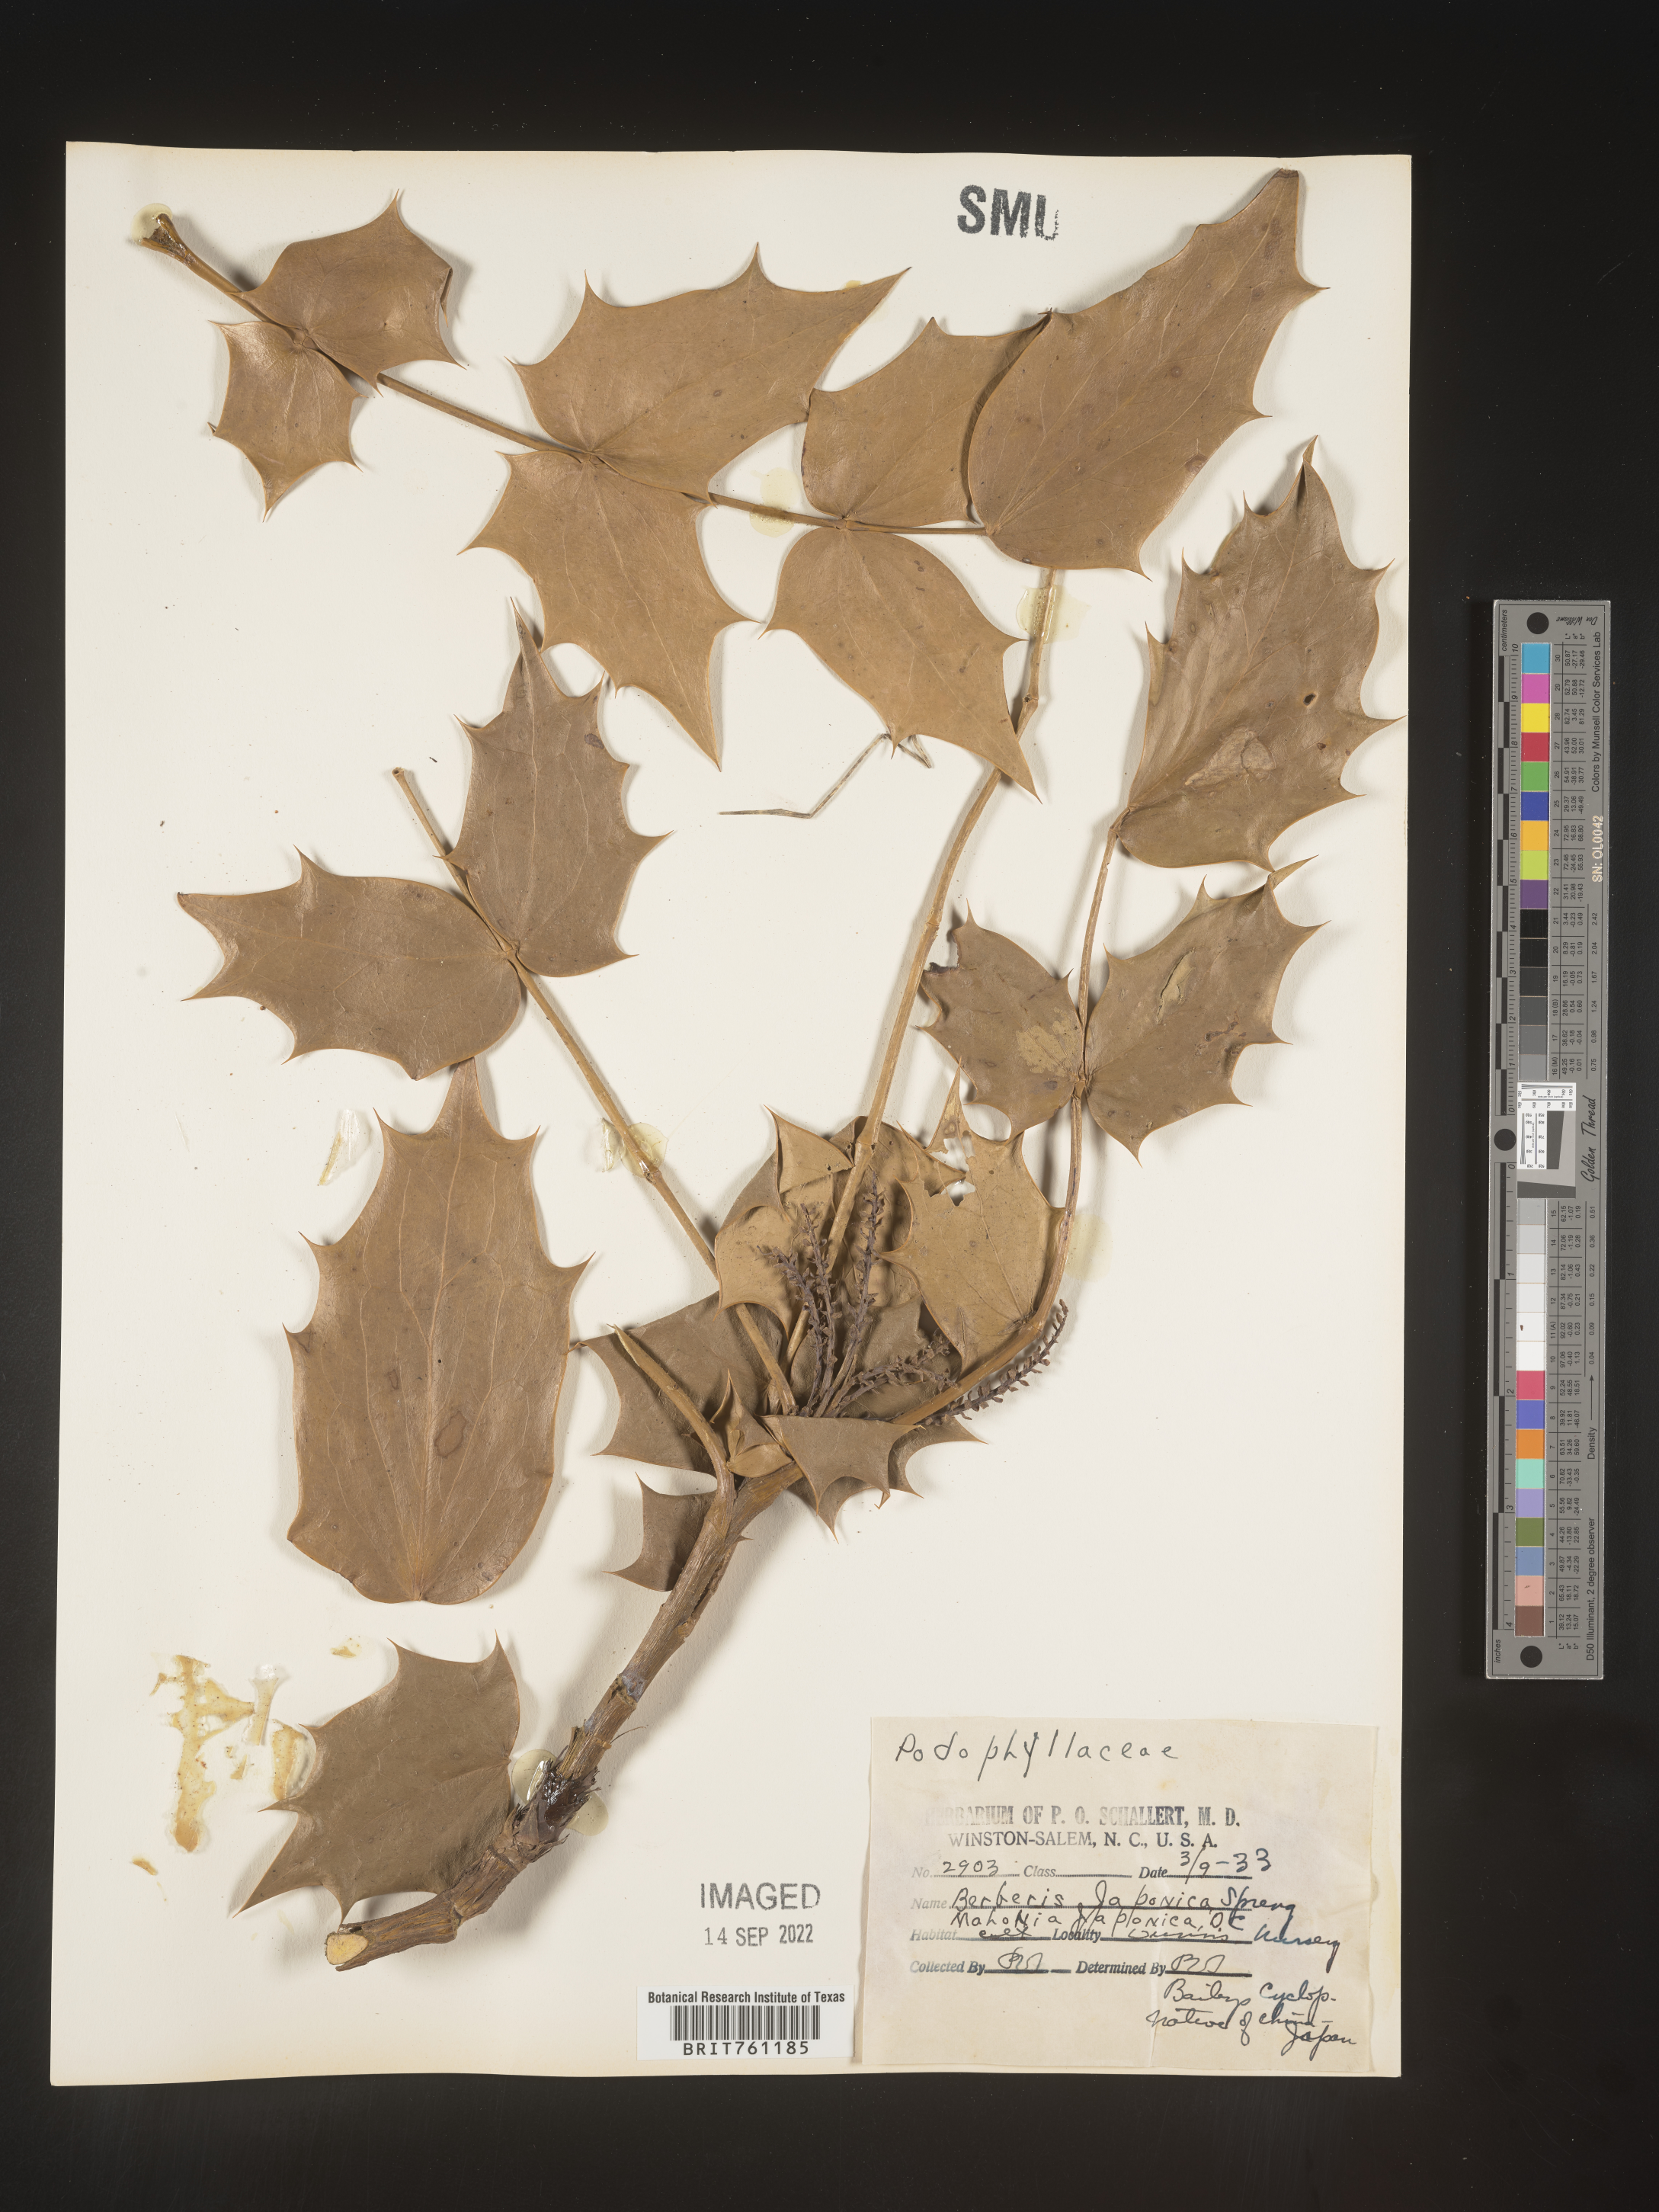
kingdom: Plantae
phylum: Tracheophyta
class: Magnoliopsida
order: Ranunculales
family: Berberidaceae
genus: Mahonia
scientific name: Mahonia
